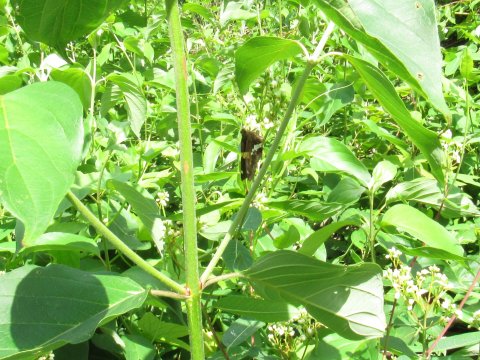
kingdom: Animalia
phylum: Arthropoda
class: Insecta
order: Lepidoptera
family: Hesperiidae
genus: Epargyreus
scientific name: Epargyreus clarus
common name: Silver-spotted Skipper
